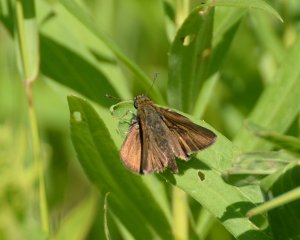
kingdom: Animalia
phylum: Arthropoda
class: Insecta
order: Lepidoptera
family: Hesperiidae
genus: Euphyes
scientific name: Euphyes vestris
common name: Dun Skipper
